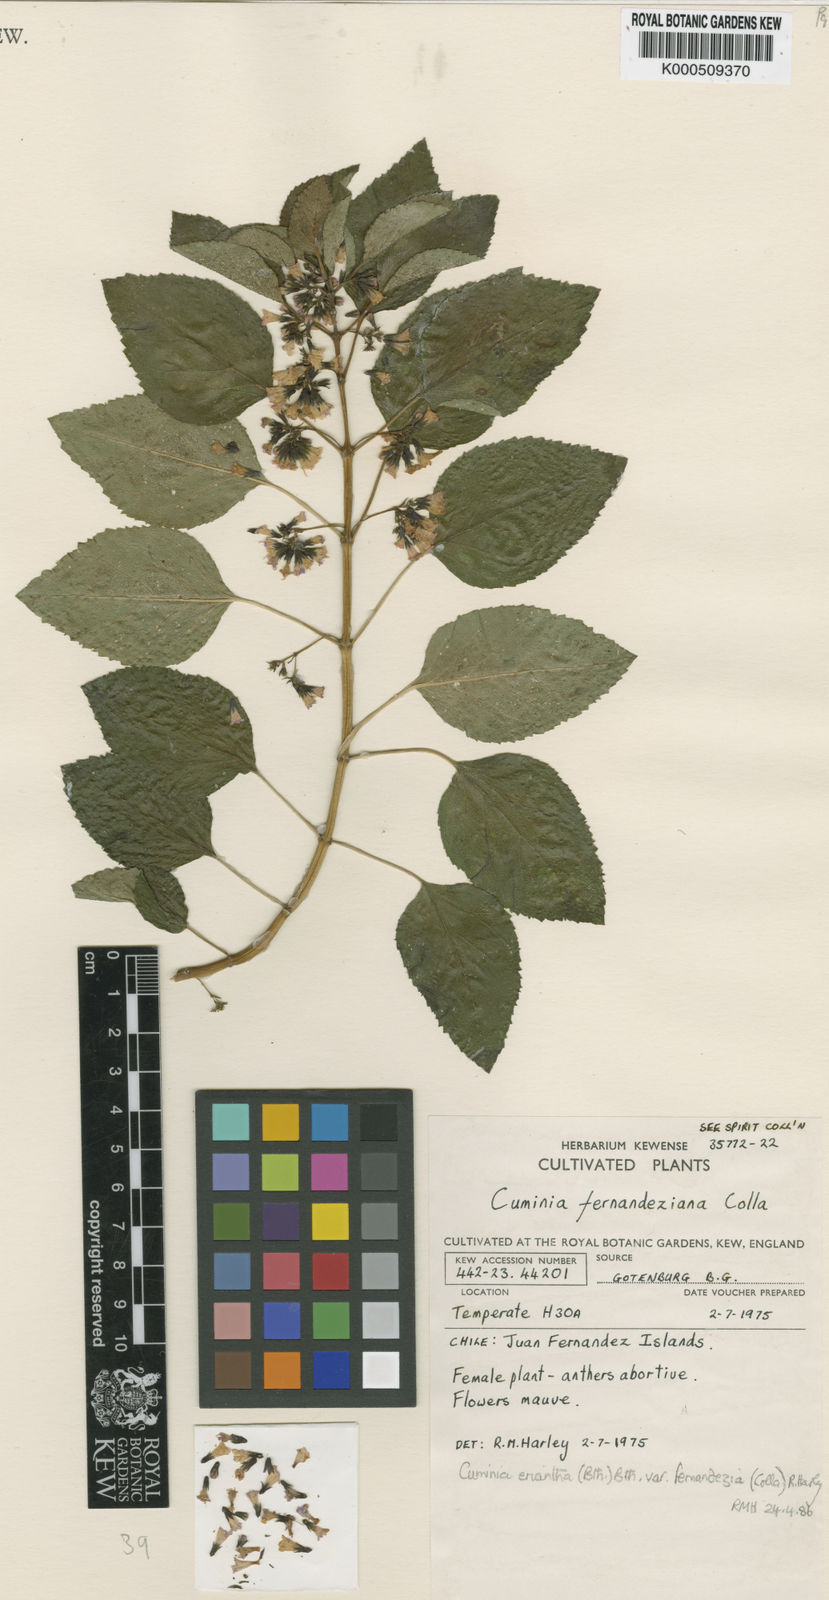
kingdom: Plantae
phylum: Tracheophyta
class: Magnoliopsida
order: Lamiales
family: Lamiaceae
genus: Cuminia
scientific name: Cuminia eriantha
